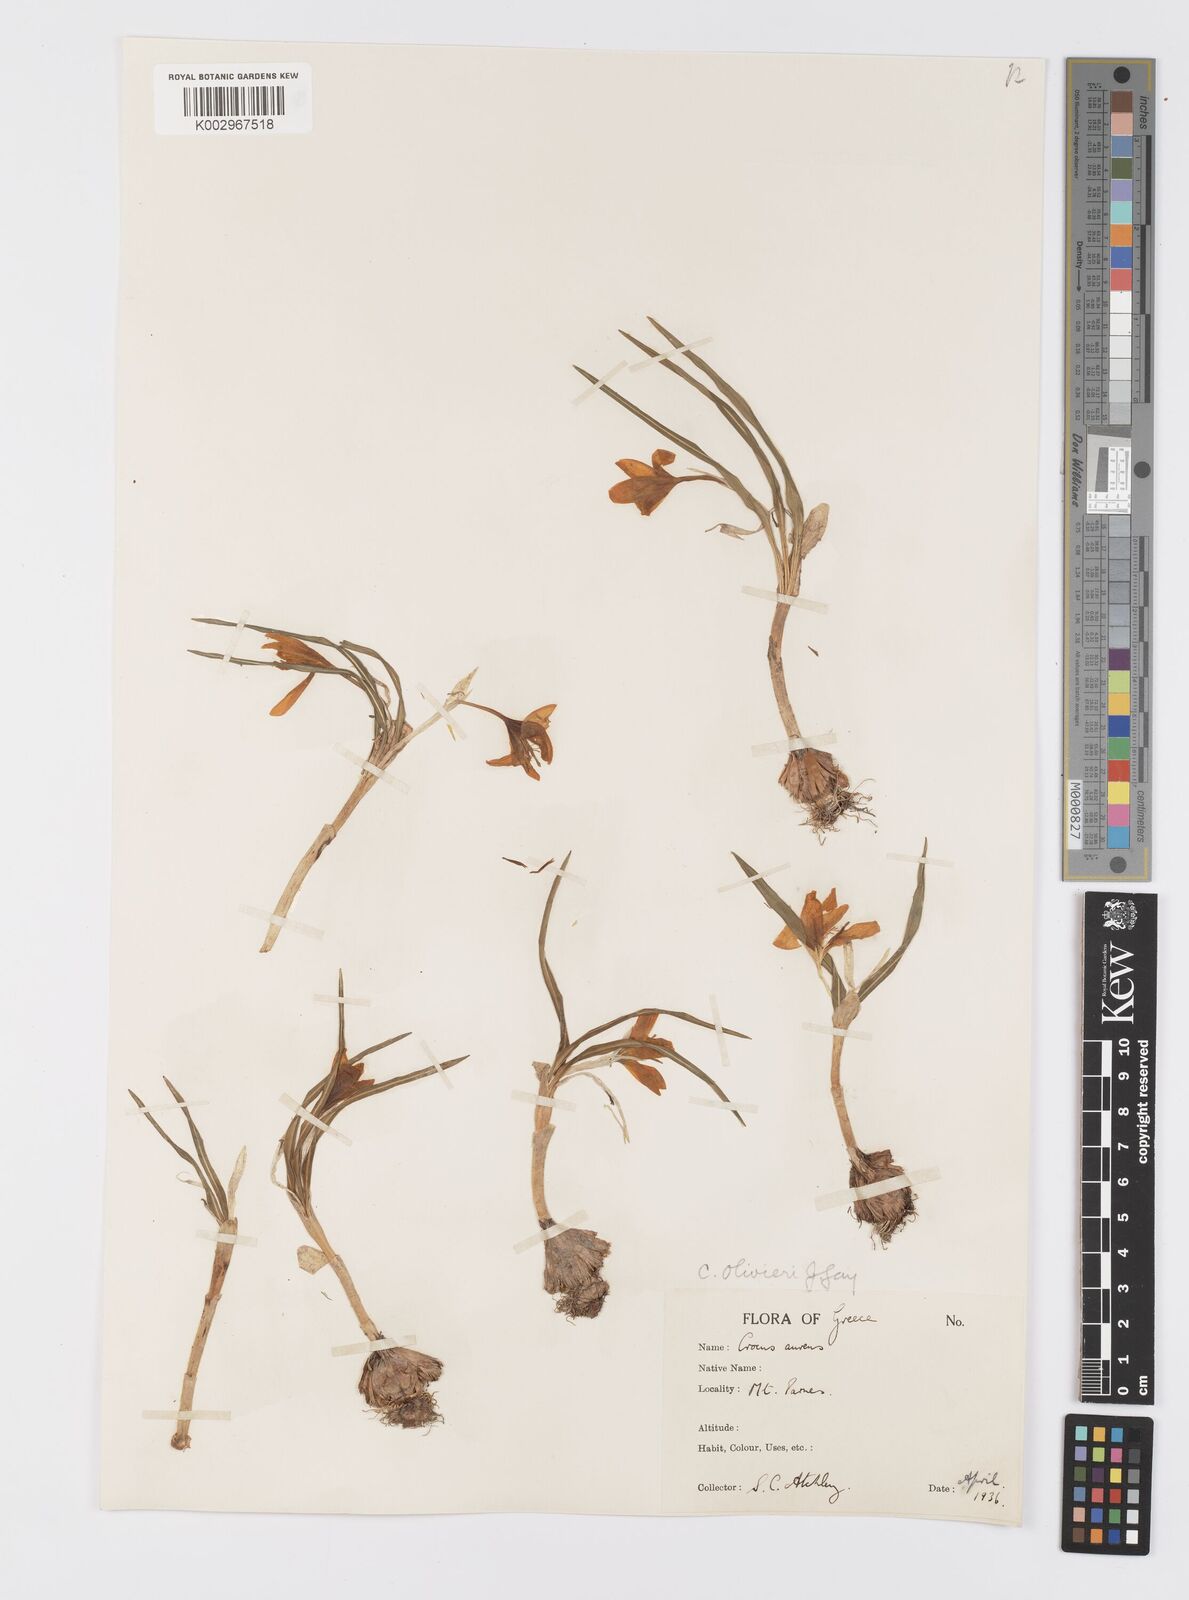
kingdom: Plantae
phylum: Tracheophyta
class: Liliopsida
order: Asparagales
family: Iridaceae
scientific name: Iridaceae
